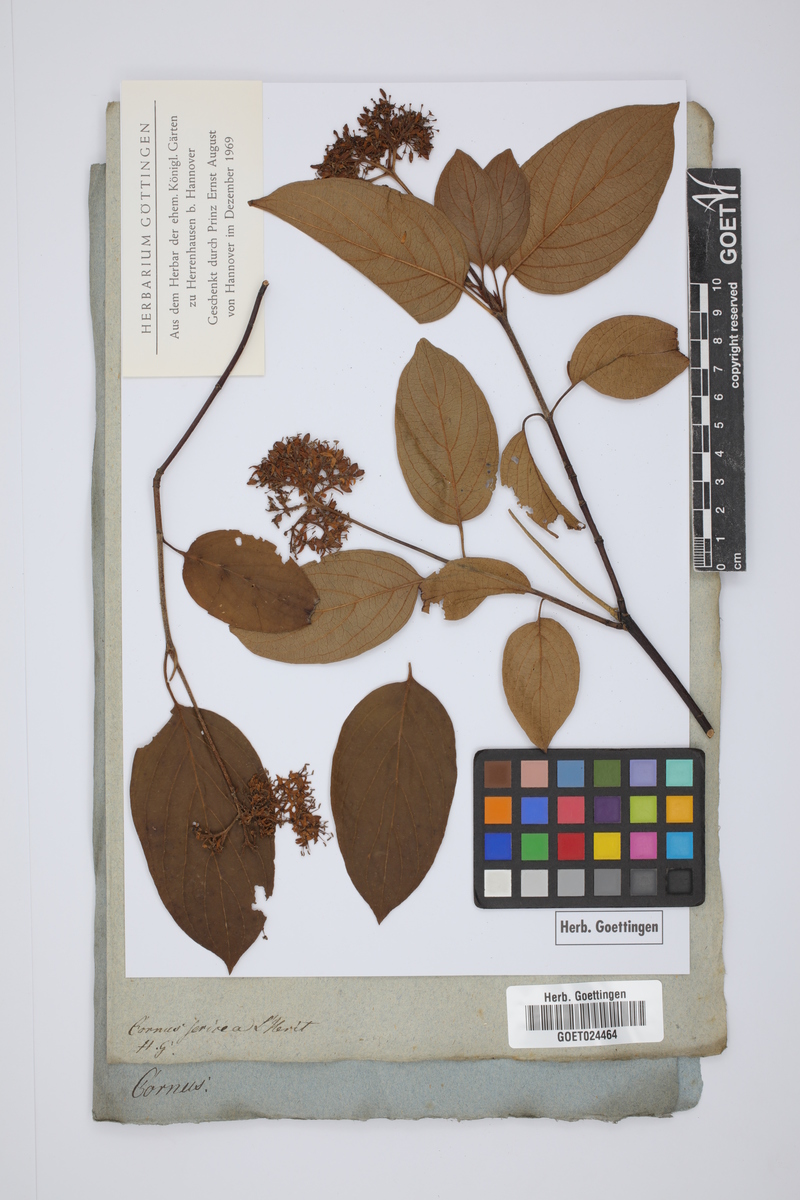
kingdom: Plantae
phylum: Tracheophyta
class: Magnoliopsida
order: Cornales
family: Cornaceae
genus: Cornus
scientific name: Cornus sericea
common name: Red-osier dogwood
